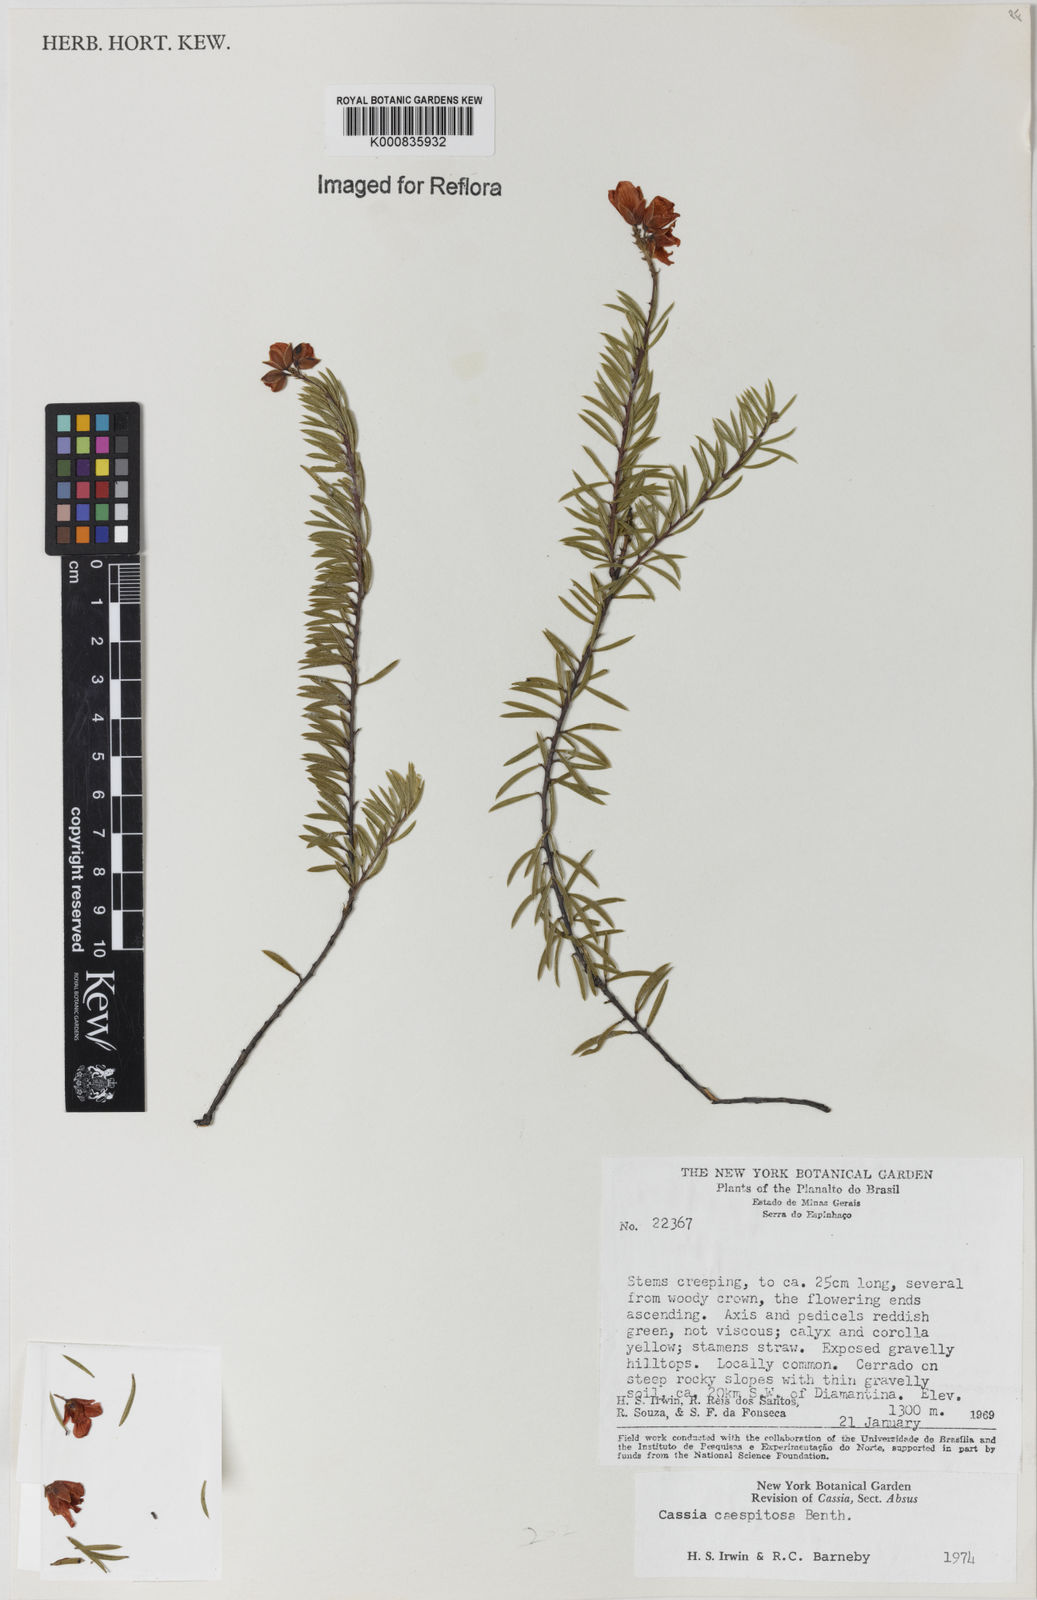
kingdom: Plantae
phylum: Tracheophyta
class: Magnoliopsida
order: Fabales
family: Fabaceae
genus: Chamaecrista
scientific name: Chamaecrista caespitosa
